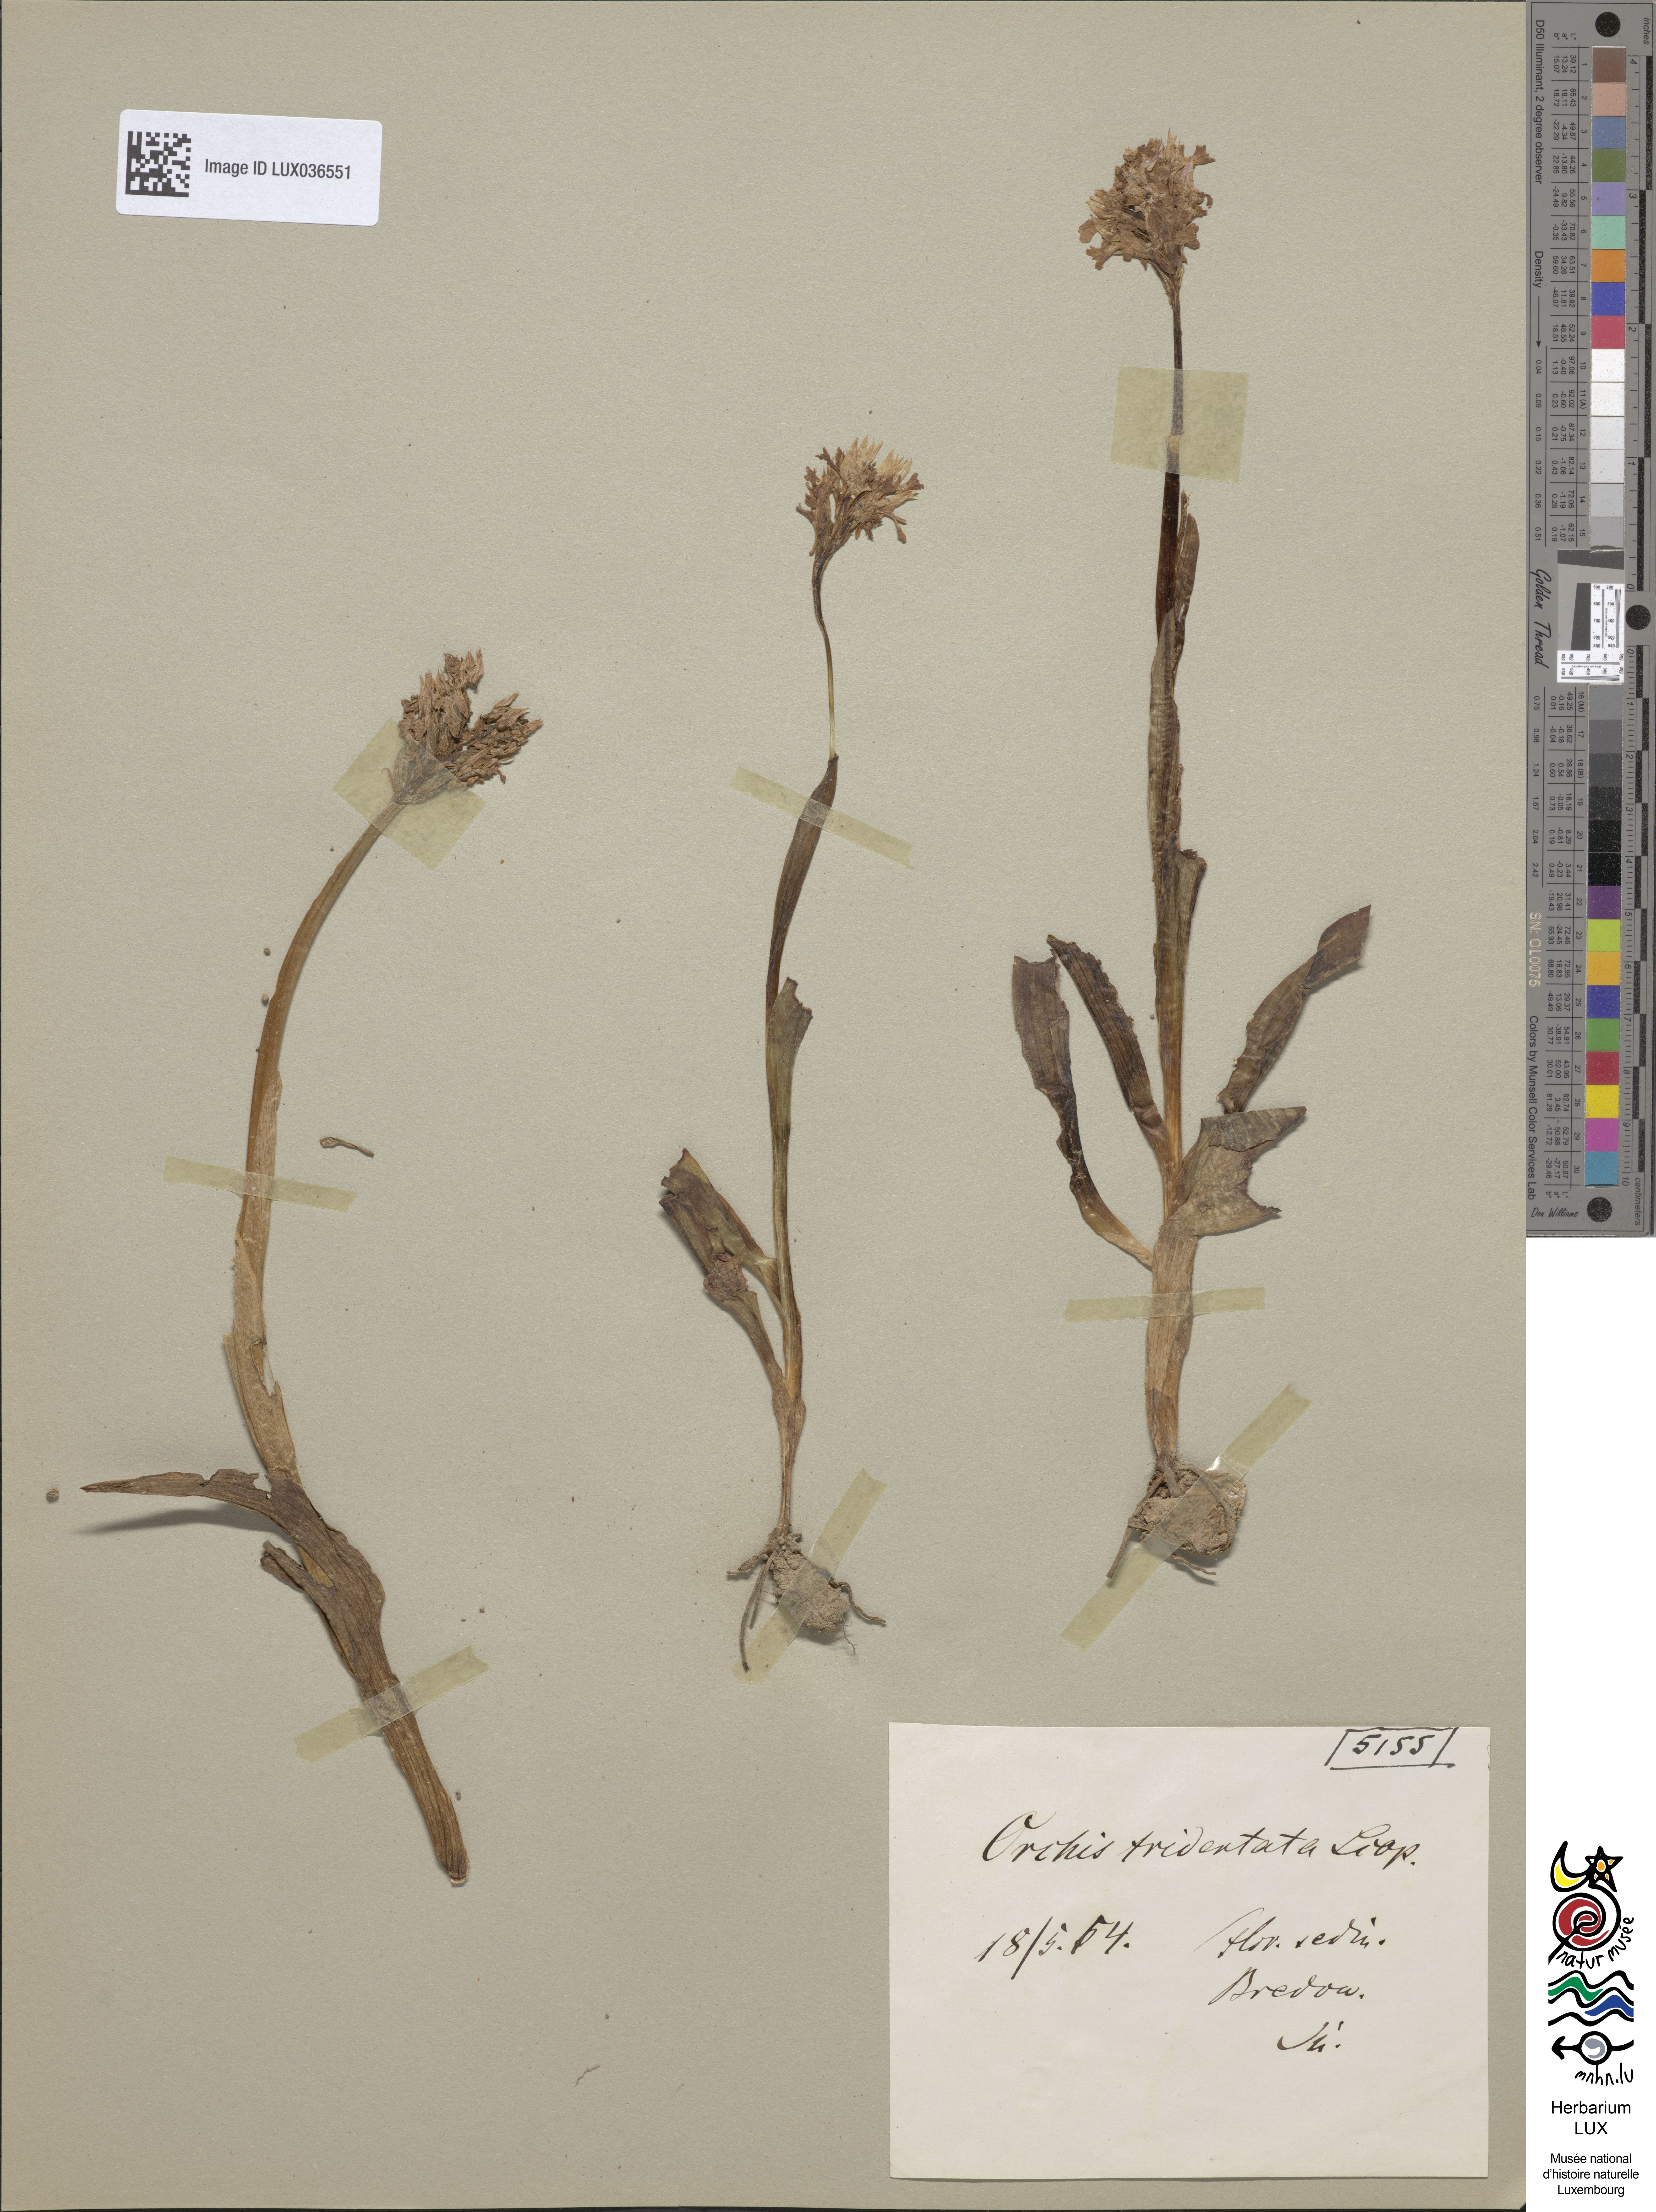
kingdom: Plantae
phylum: Tracheophyta
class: Liliopsida
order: Asparagales
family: Orchidaceae
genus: Neotinea
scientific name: Neotinea tridentata
